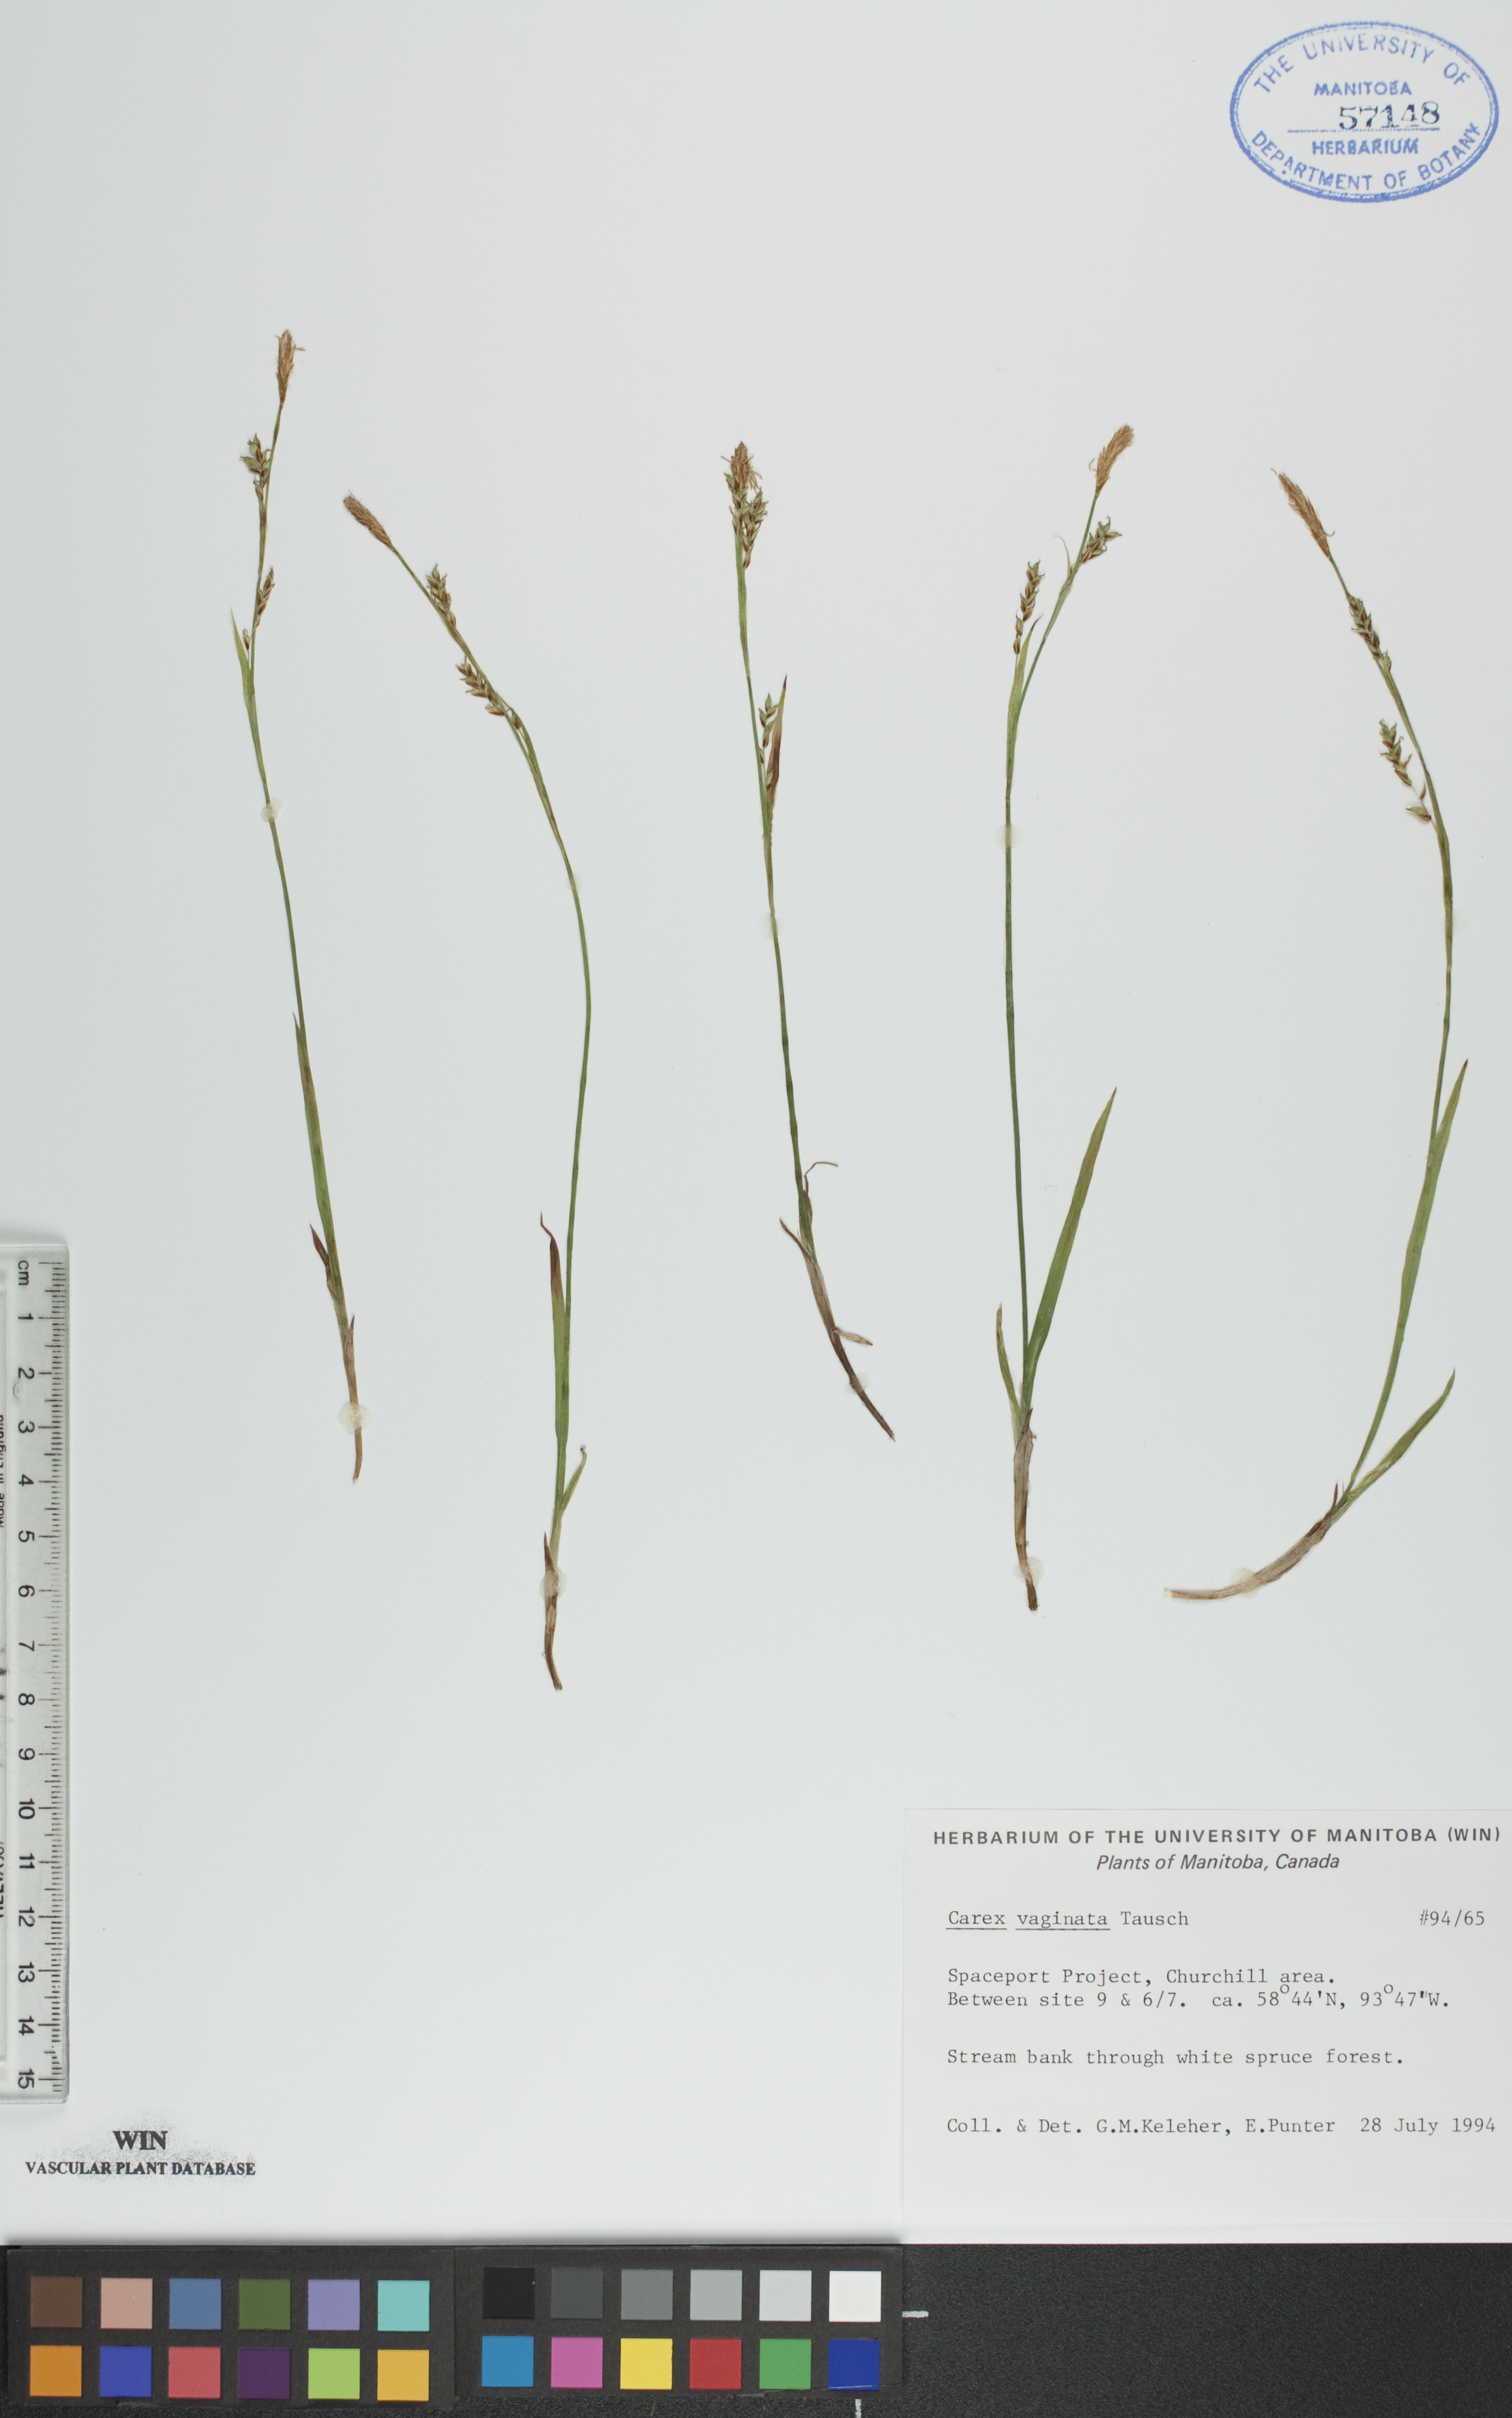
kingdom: Plantae
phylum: Tracheophyta
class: Liliopsida
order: Poales
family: Cyperaceae
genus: Carex
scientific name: Carex vaginata
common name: Sheathed sedge
